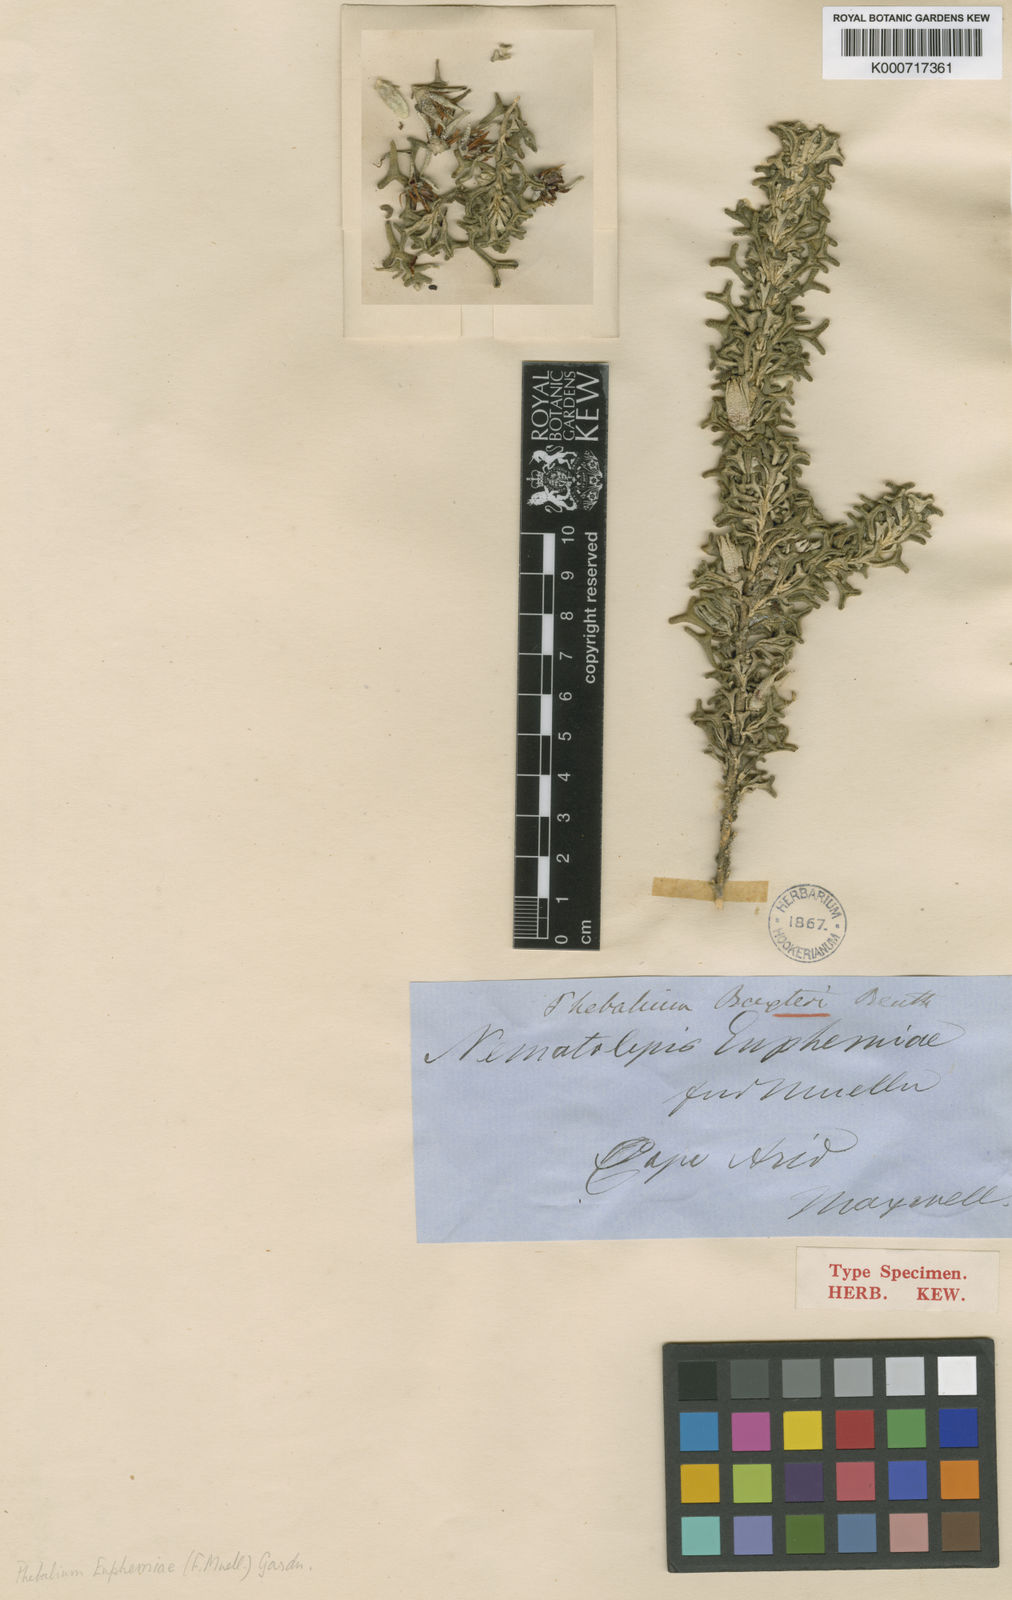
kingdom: Plantae
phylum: Tracheophyta
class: Magnoliopsida
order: Sapindales
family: Rutaceae
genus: Rhadinothamnus
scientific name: Rhadinothamnus euphemiae
